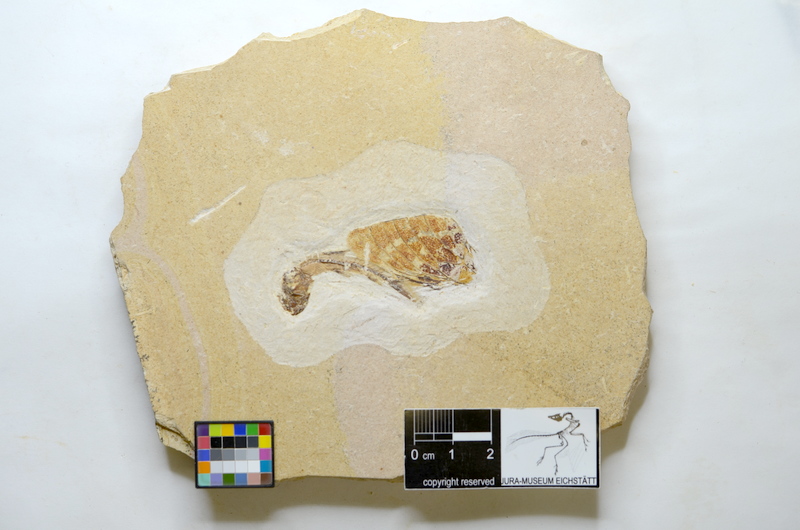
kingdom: Animalia
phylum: Chordata
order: Gonorynchiformes
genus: Dastilbe
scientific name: Dastilbe
